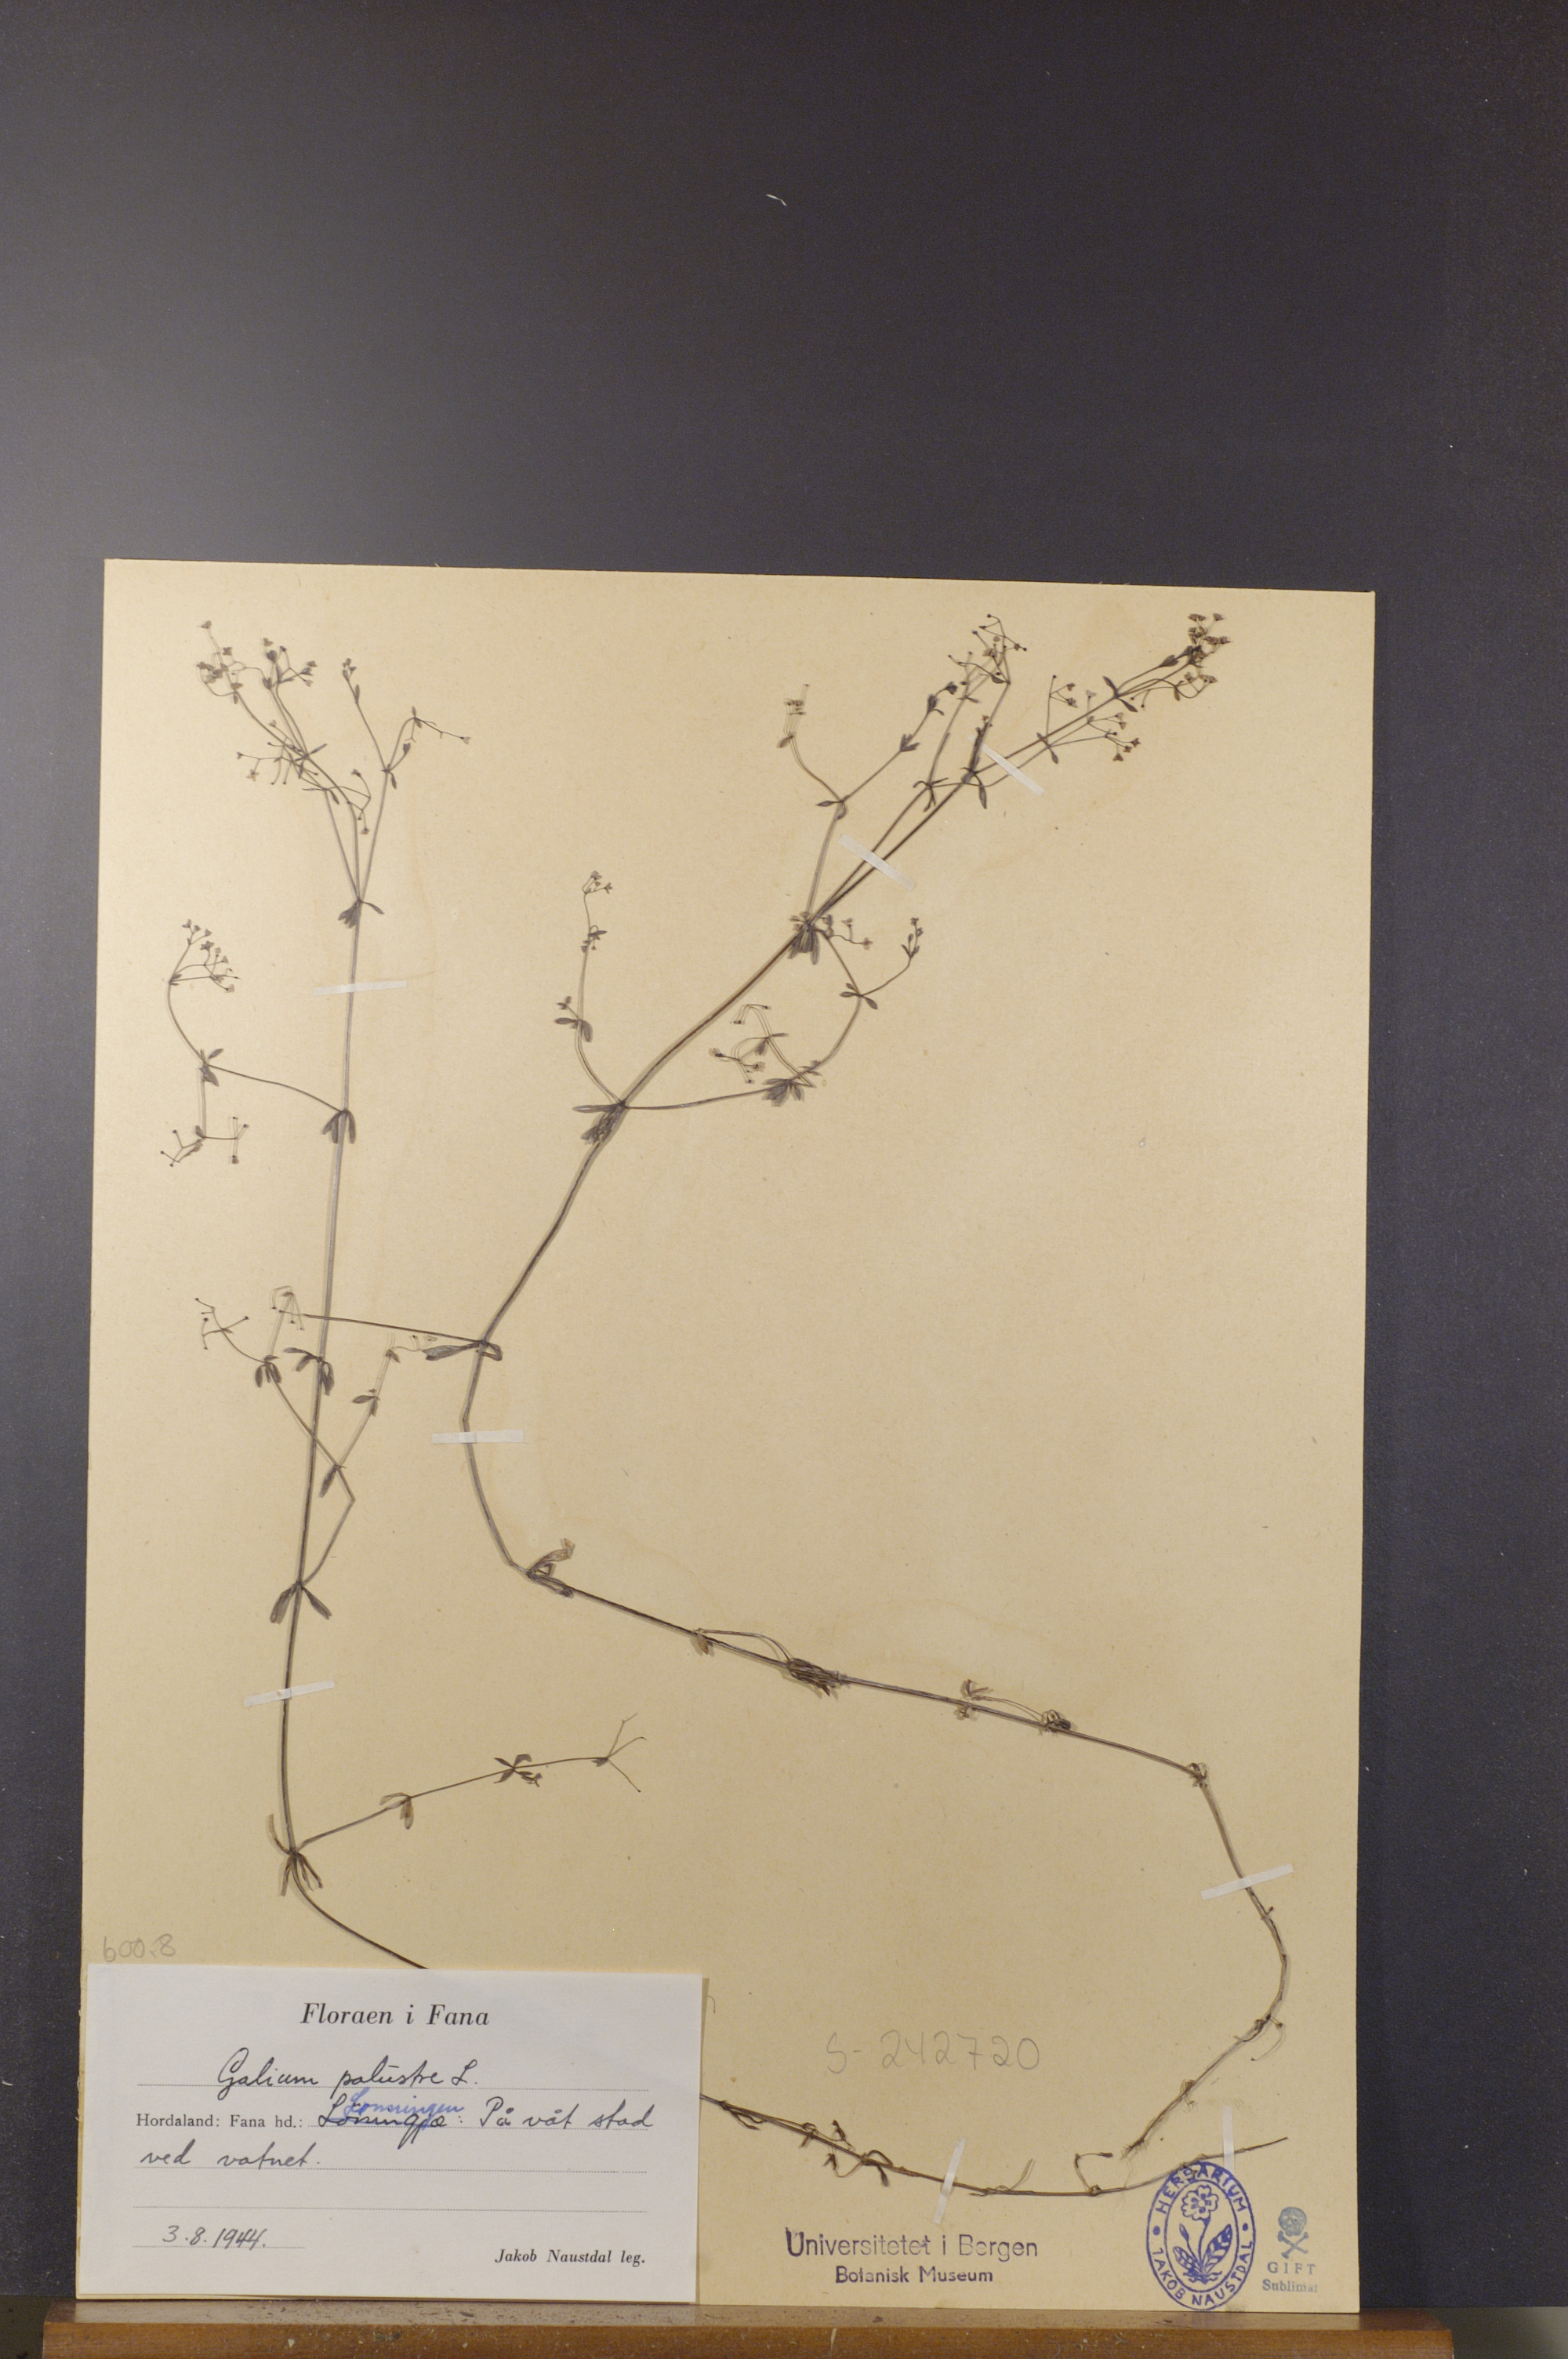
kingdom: Plantae
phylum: Tracheophyta
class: Magnoliopsida
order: Gentianales
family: Rubiaceae
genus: Galium
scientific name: Galium palustre
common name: Common marsh-bedstraw
